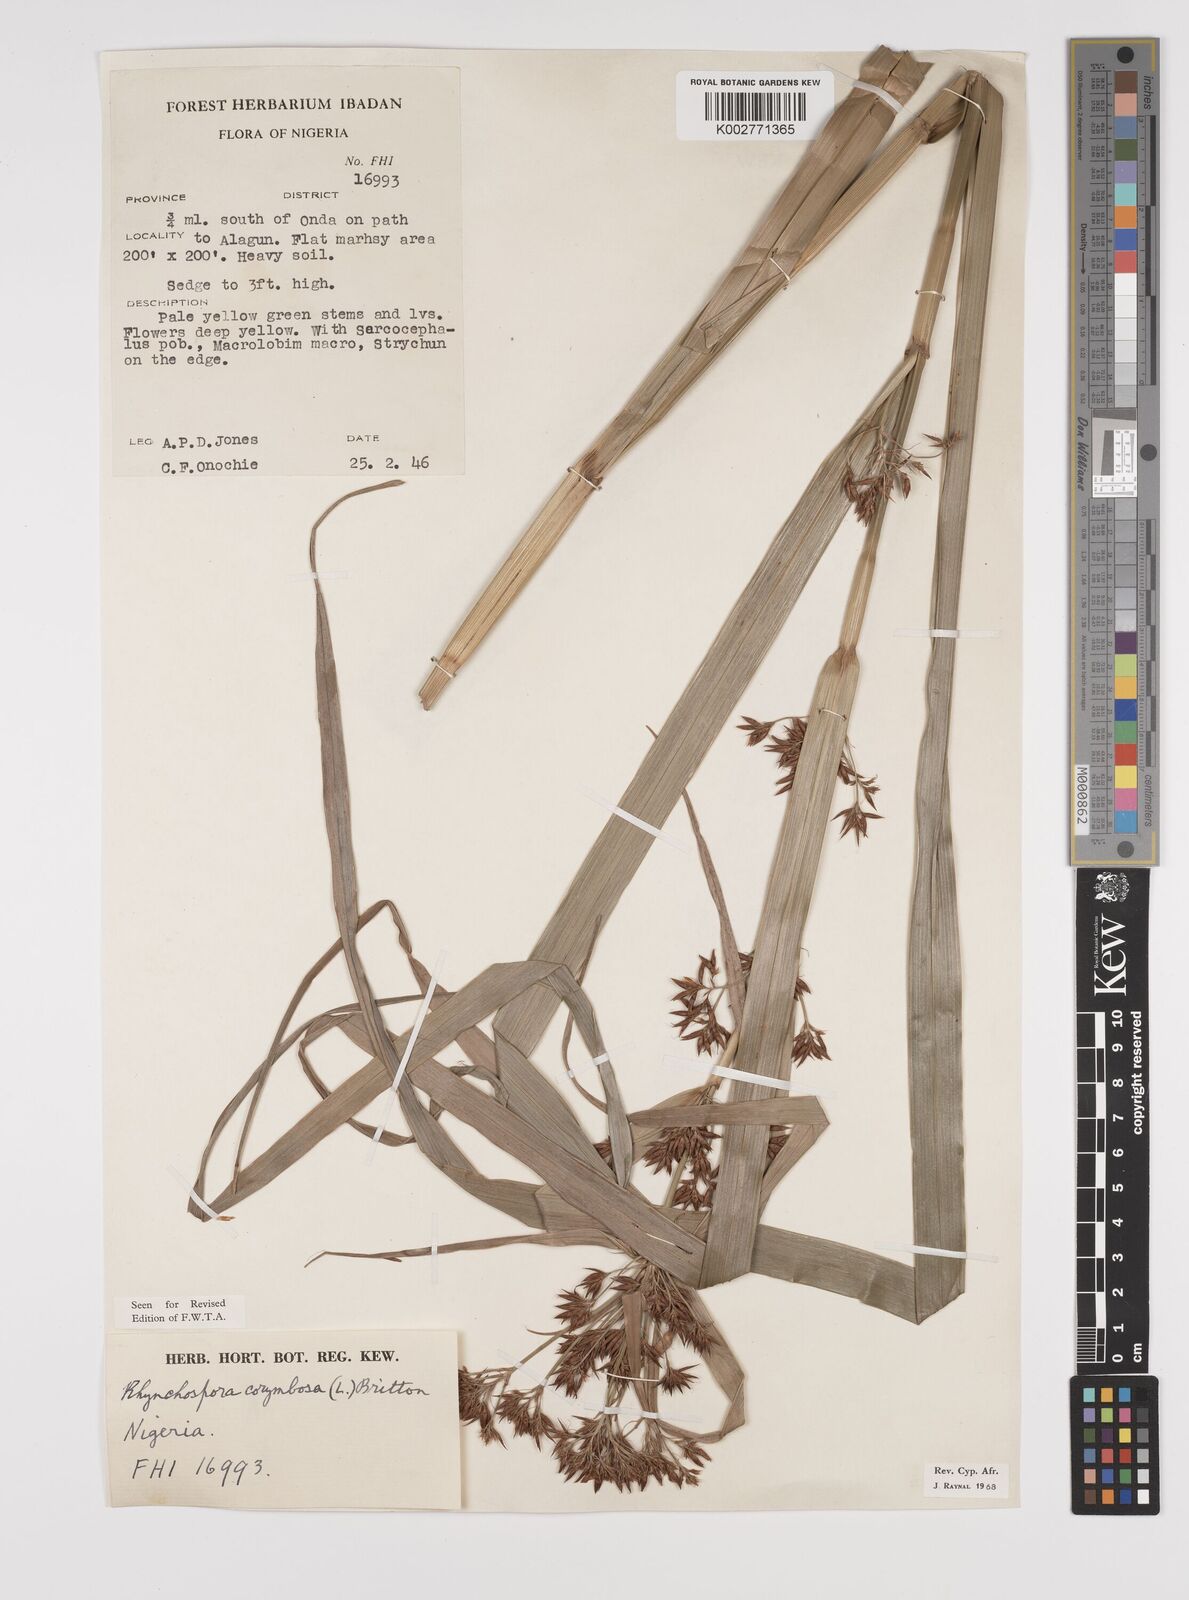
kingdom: Plantae
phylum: Tracheophyta
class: Liliopsida
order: Poales
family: Cyperaceae
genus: Rhynchospora
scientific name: Rhynchospora corymbosa
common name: Golden beak sedge
